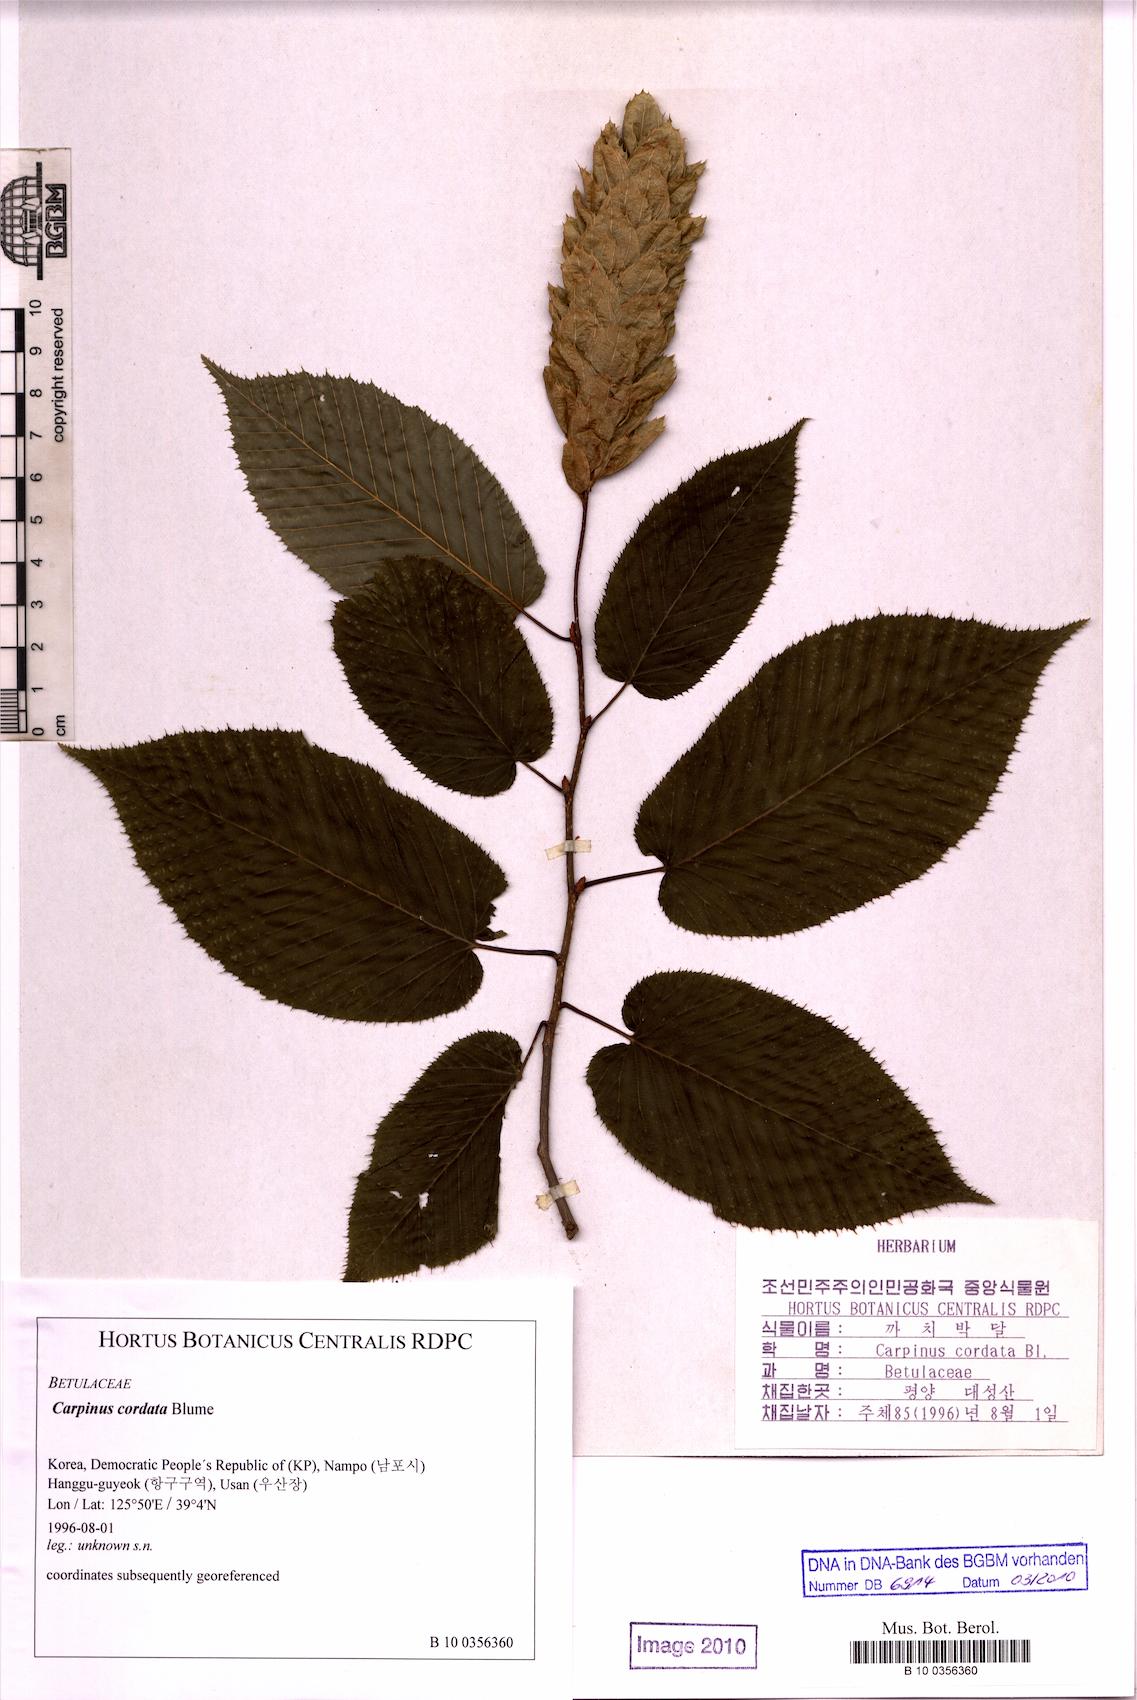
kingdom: Plantae
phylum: Tracheophyta
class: Magnoliopsida
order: Fagales
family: Betulaceae
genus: Carpinus
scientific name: Carpinus cordata
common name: Sawa hornbeam
